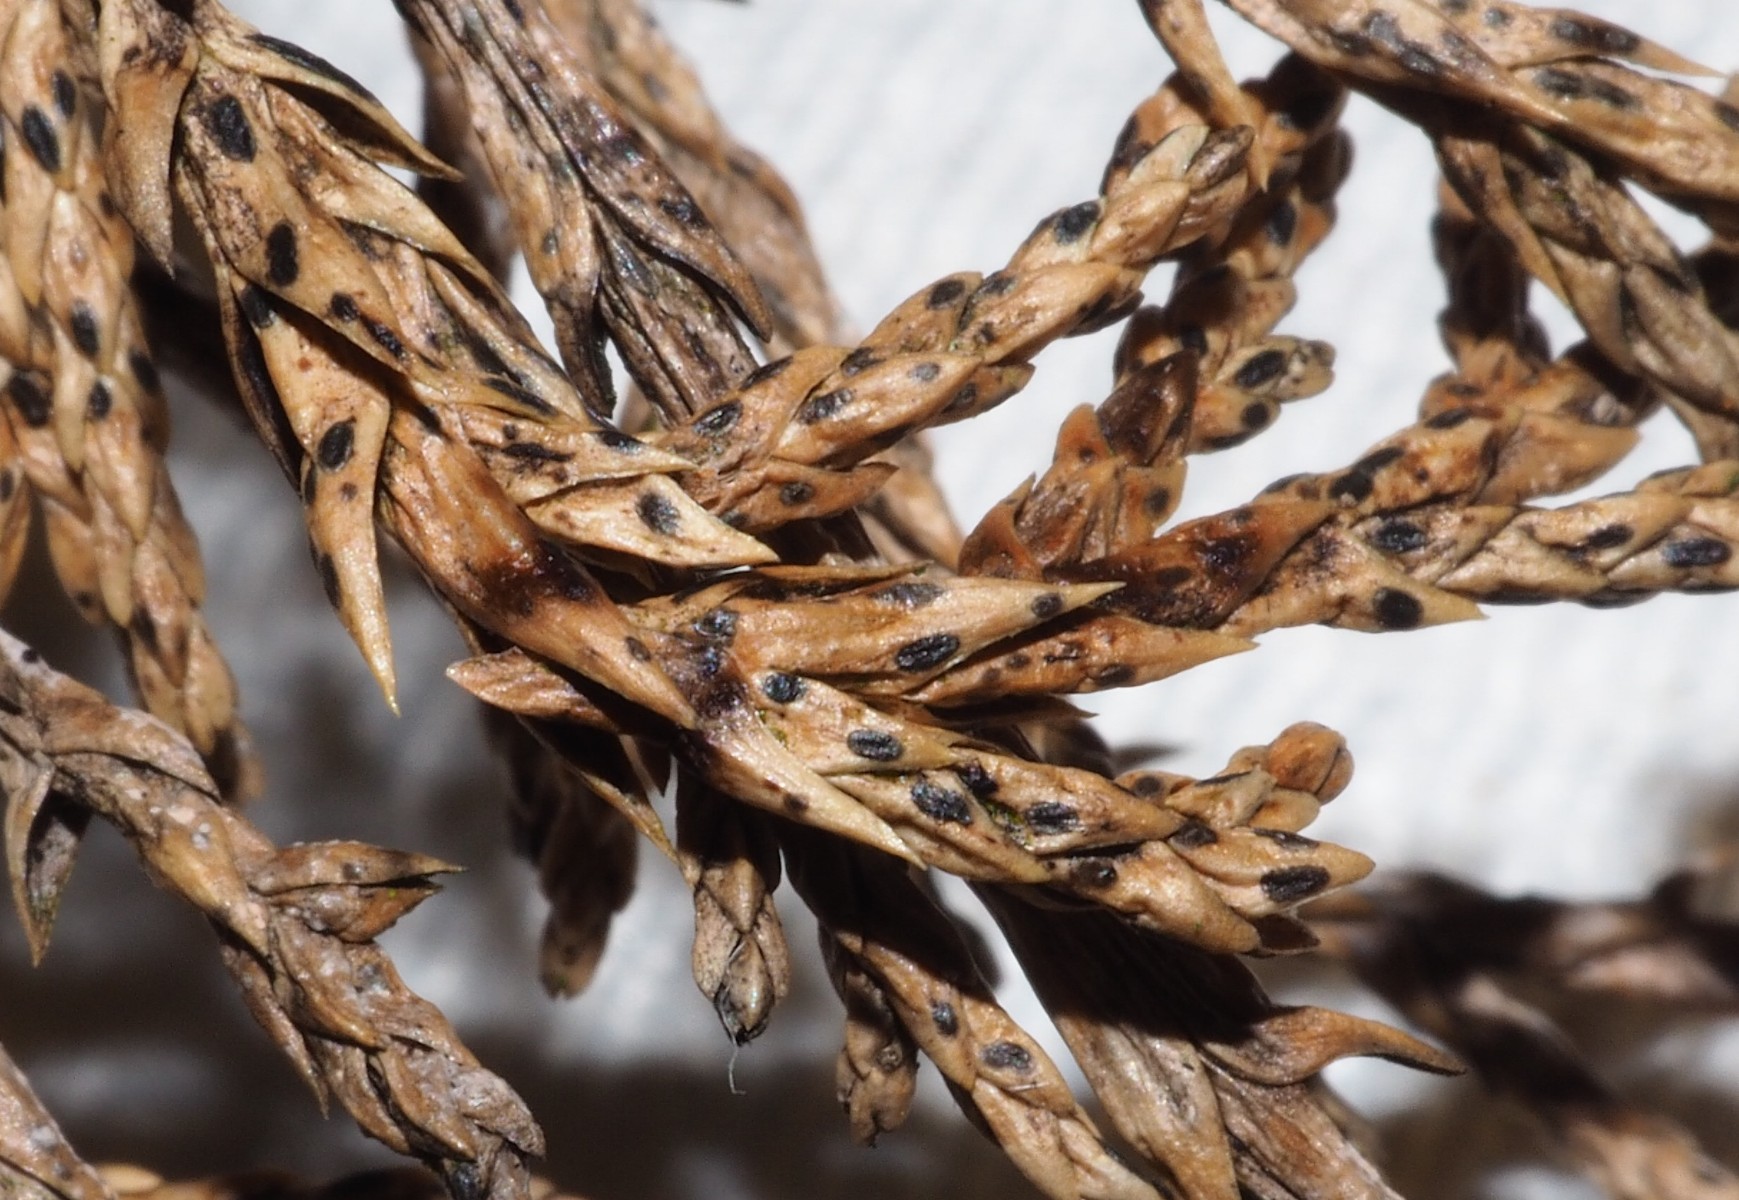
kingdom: Fungi
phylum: Ascomycota
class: Leotiomycetes
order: Rhytismatales
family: Rhytismataceae
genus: Lophodermium
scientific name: Lophodermium juniperinum
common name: ene-fureplet
